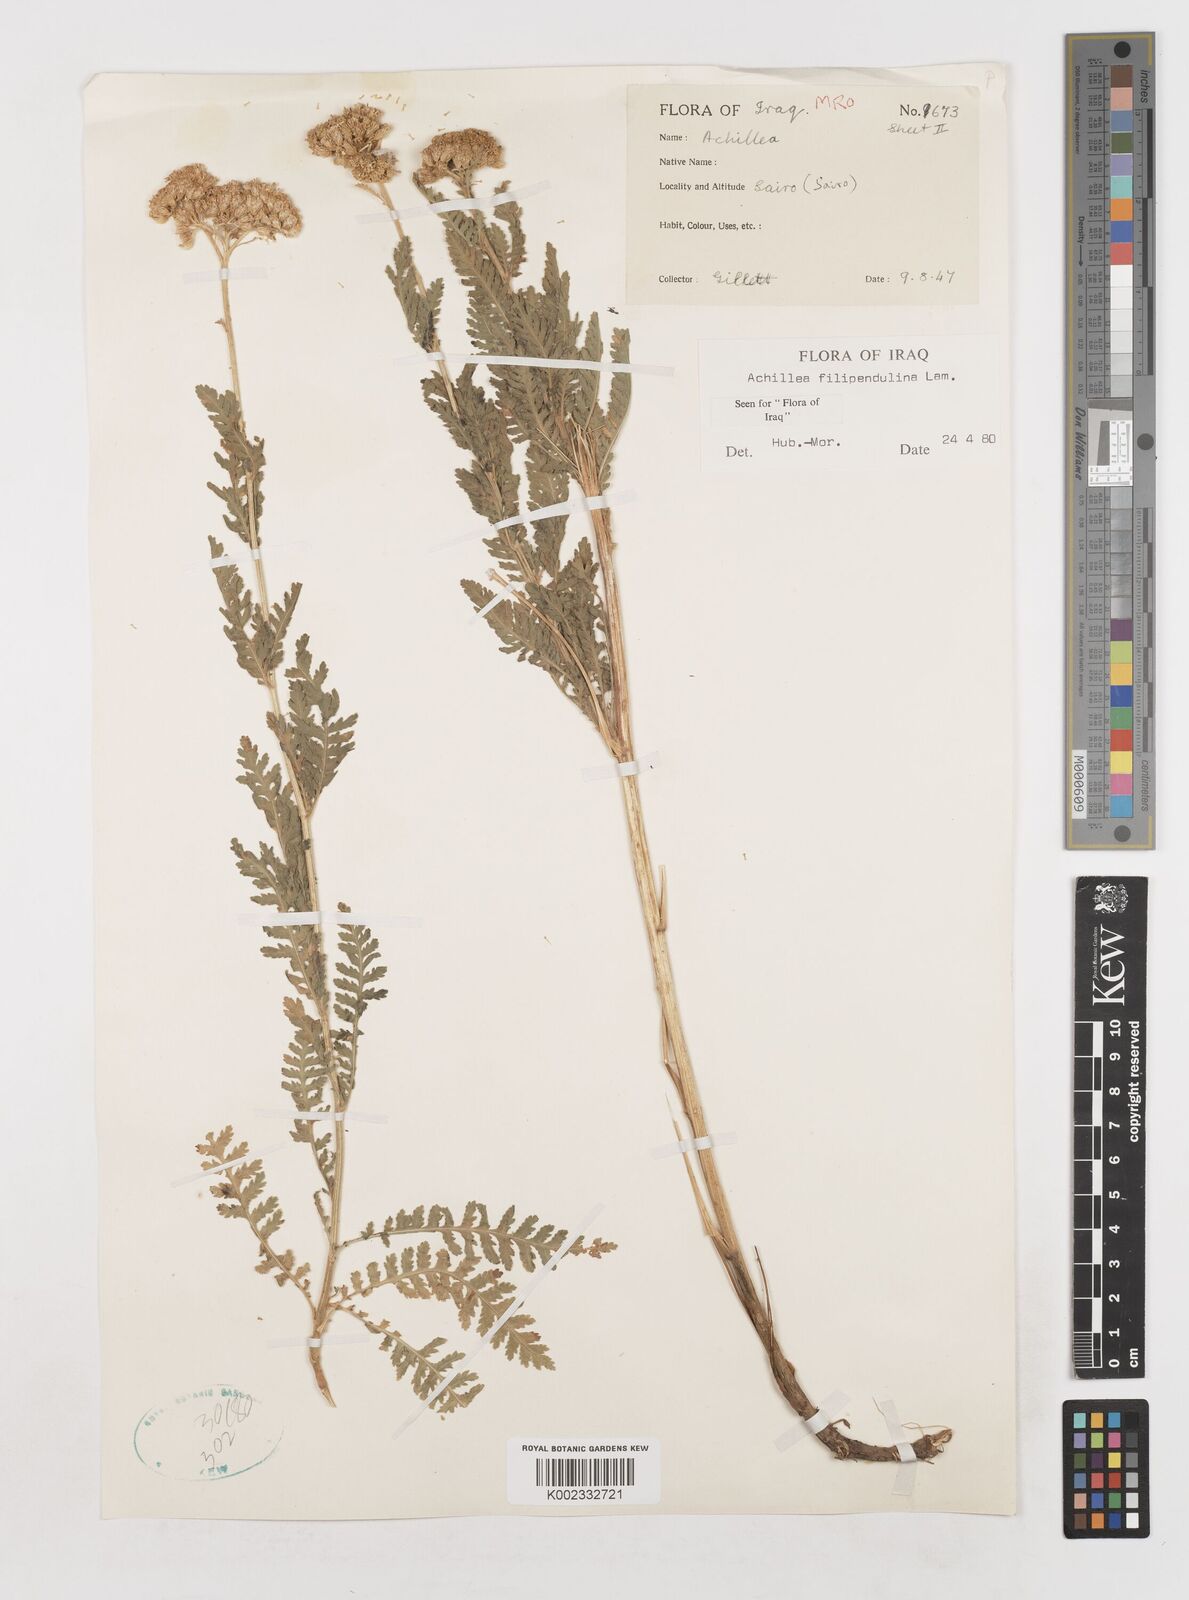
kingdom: Plantae
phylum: Tracheophyta
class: Magnoliopsida
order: Asterales
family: Asteraceae
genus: Achillea
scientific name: Achillea filipendulina
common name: Fernleaf yarrow
